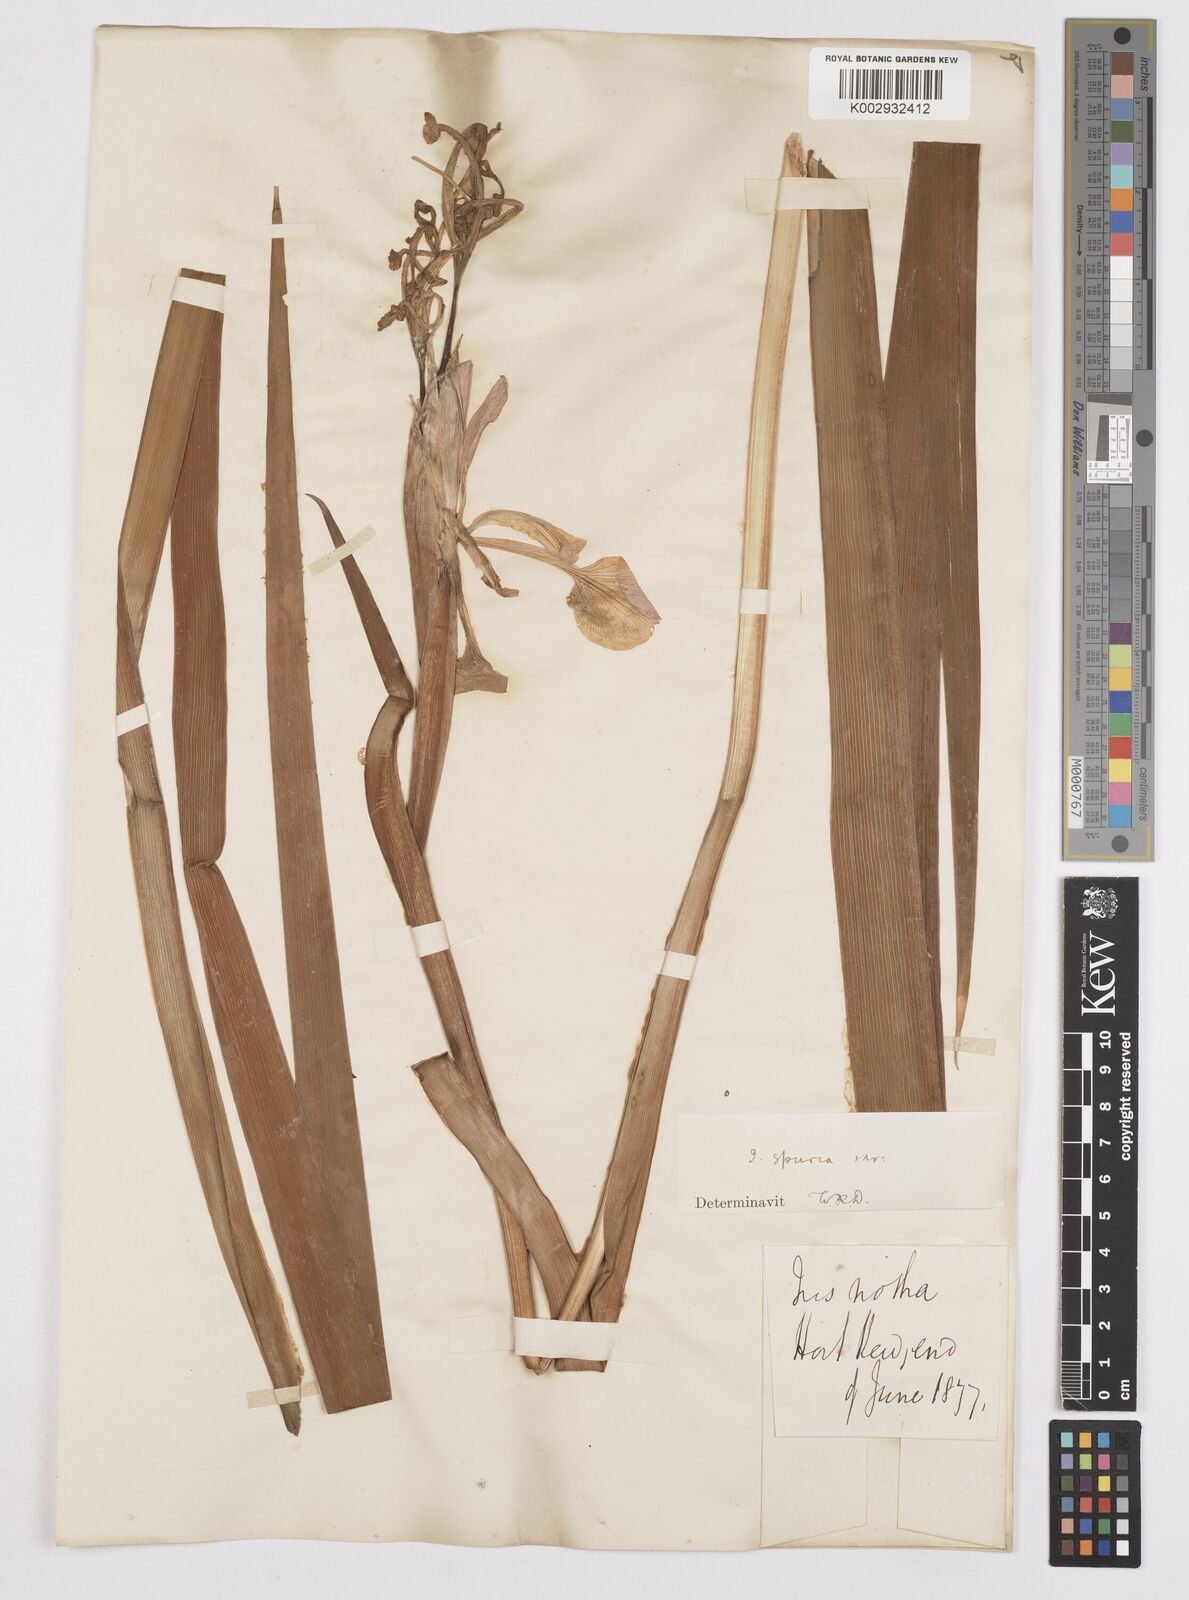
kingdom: Plantae
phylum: Tracheophyta
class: Liliopsida
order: Asparagales
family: Iridaceae
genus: Iris
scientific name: Iris spuria
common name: Blue iris
